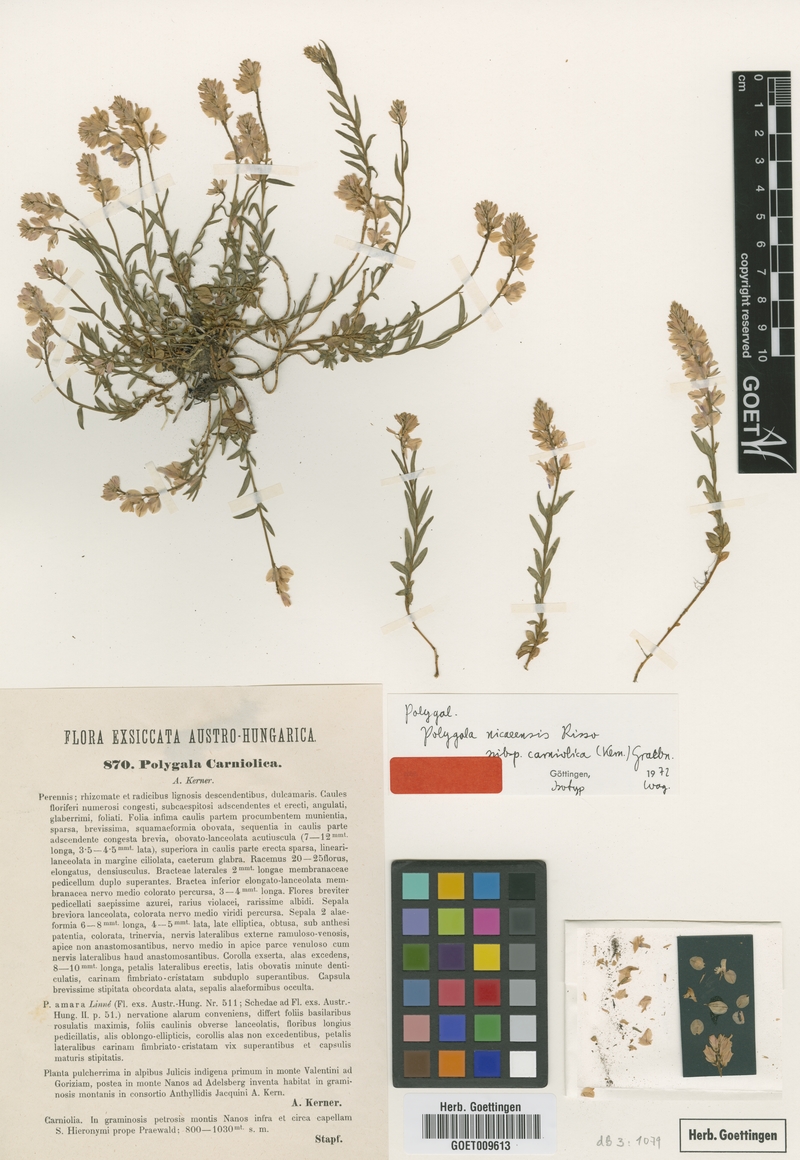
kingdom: Plantae
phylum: Tracheophyta
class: Magnoliopsida
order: Fabales
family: Polygalaceae
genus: Polygala
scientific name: Polygala
